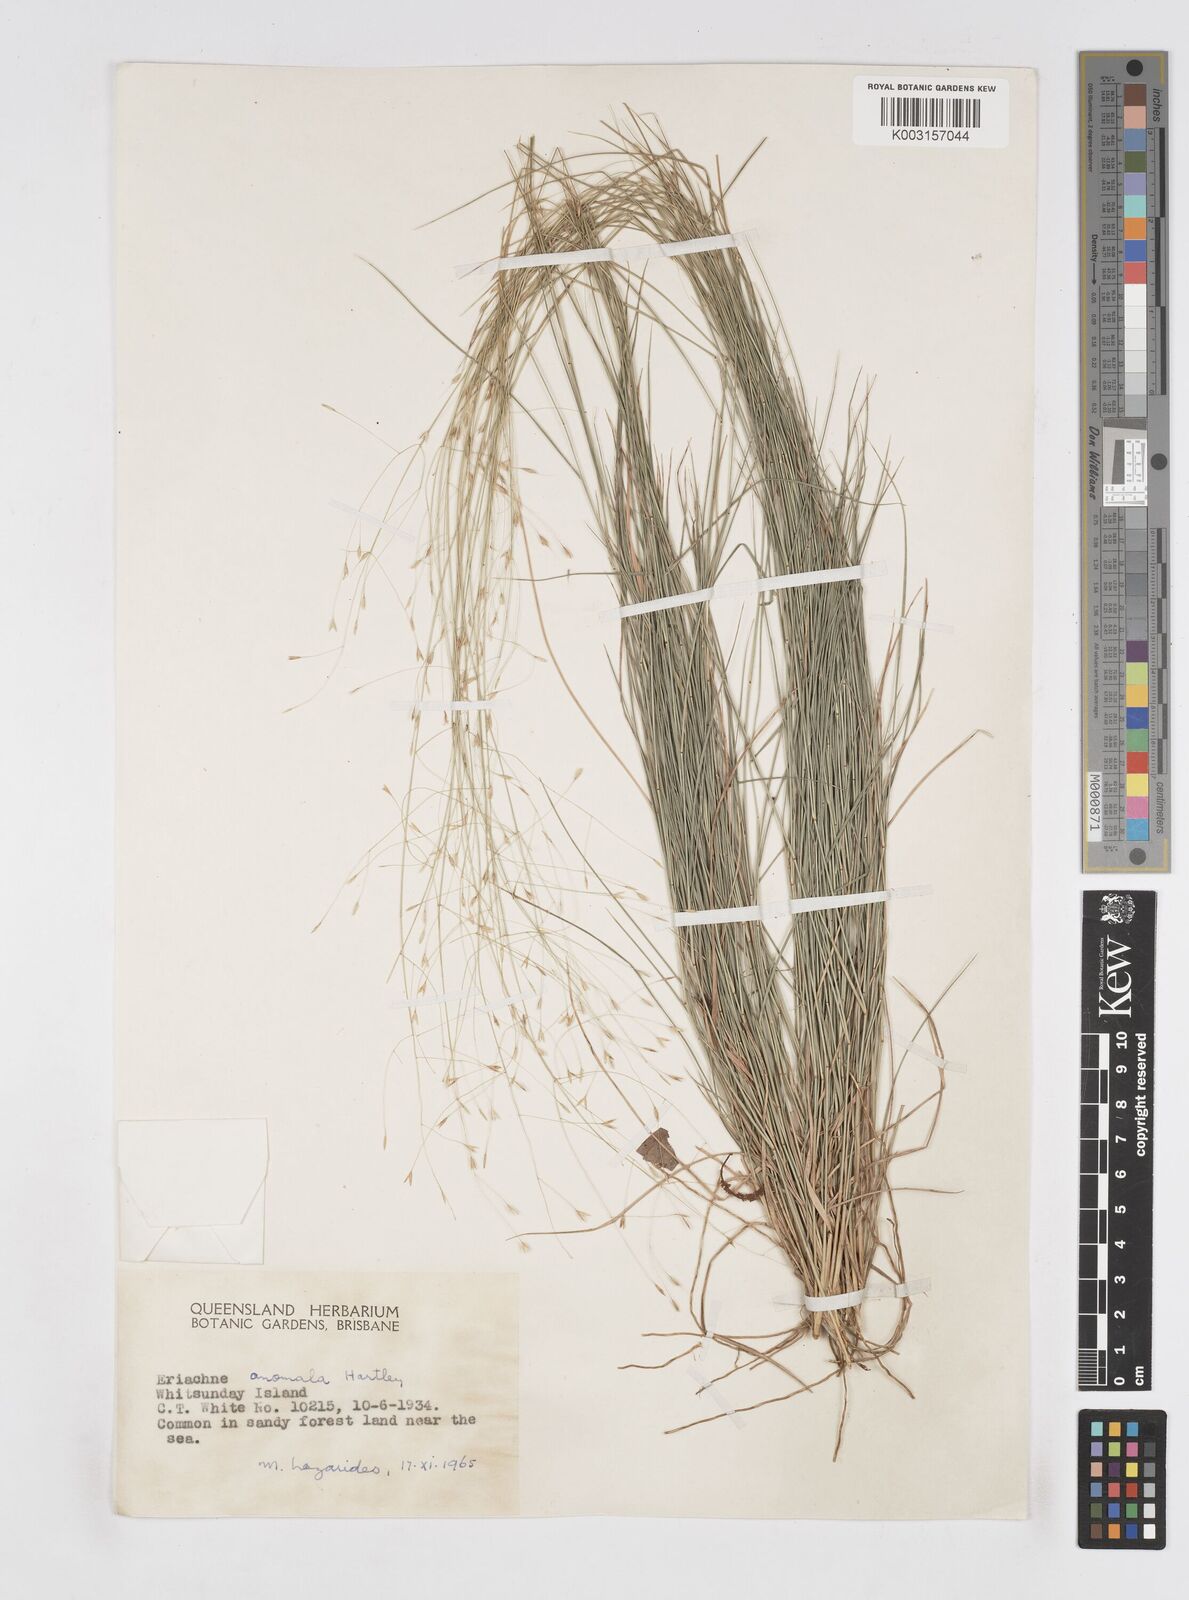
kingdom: Plantae
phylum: Tracheophyta
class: Liliopsida
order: Poales
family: Poaceae
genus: Eriachne
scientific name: Eriachne pallescens
